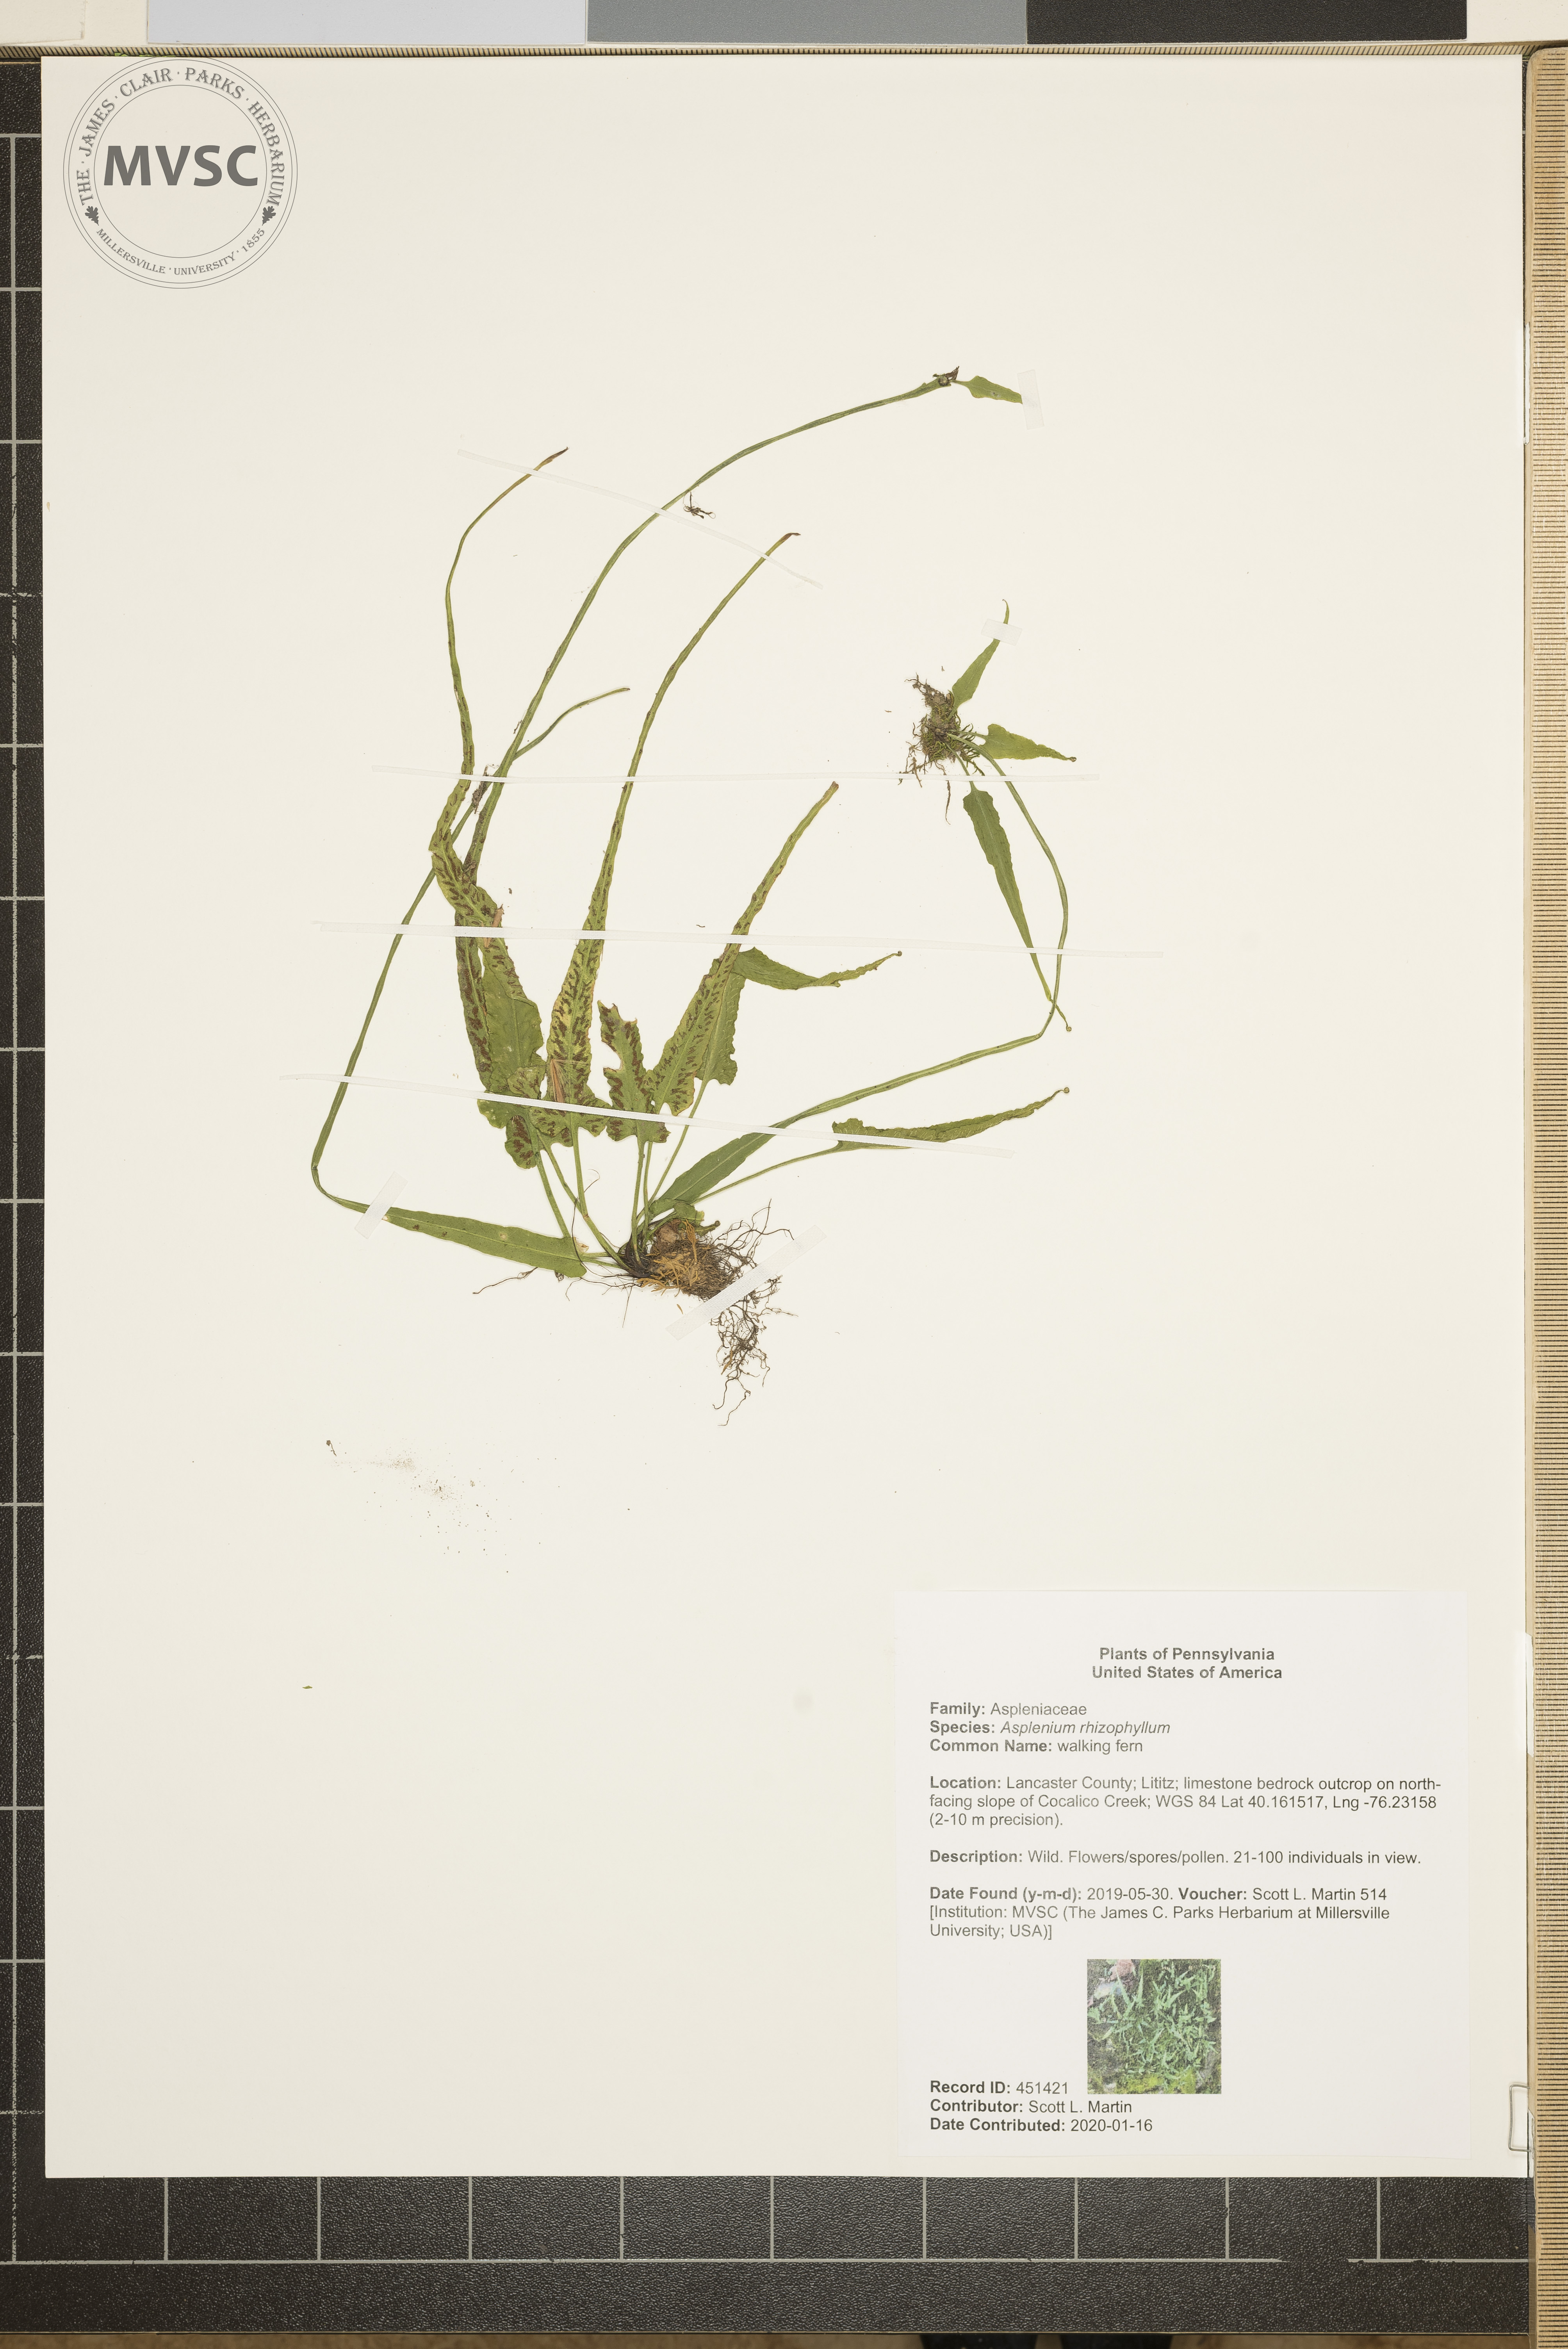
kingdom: Plantae
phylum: Tracheophyta
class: Polypodiopsida
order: Polypodiales
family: Aspleniaceae
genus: Asplenium
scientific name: Asplenium rhizophyllum
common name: walking fern
